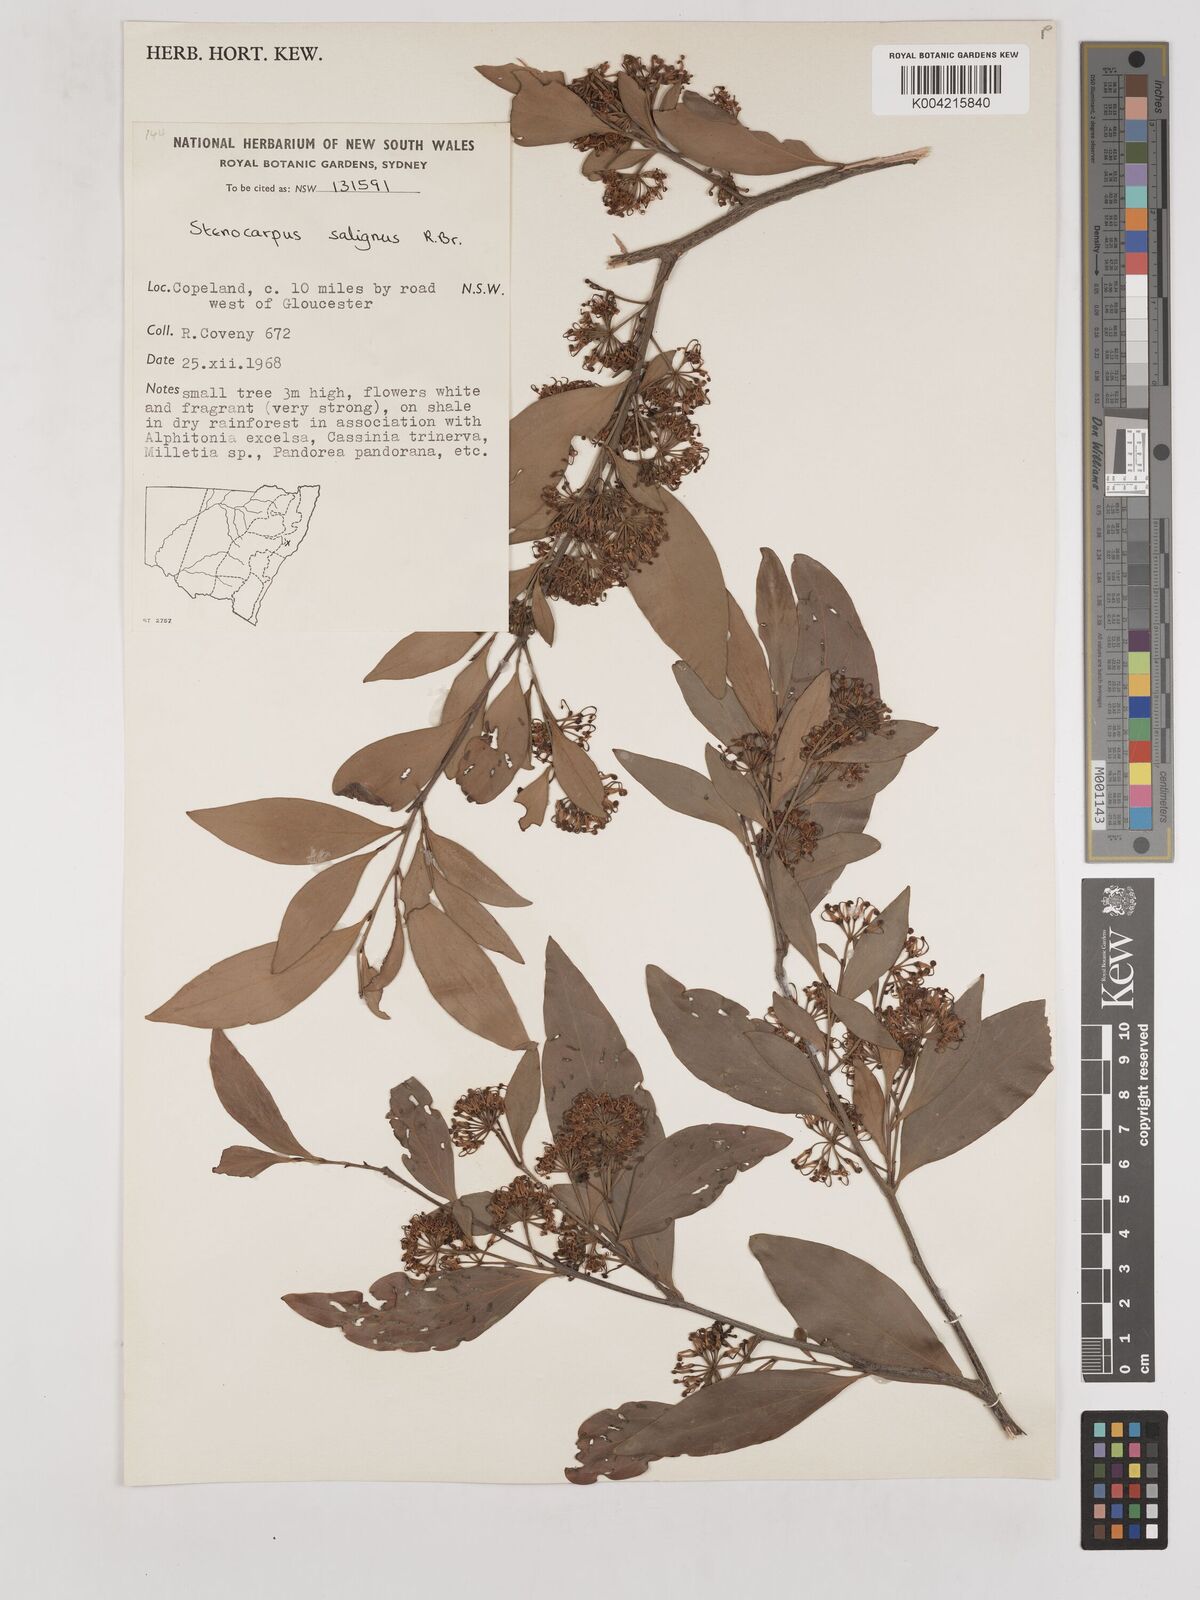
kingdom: Plantae
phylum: Tracheophyta
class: Magnoliopsida
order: Proteales
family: Proteaceae
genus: Stenocarpus
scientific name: Stenocarpus salignus
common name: Red silky-oak
